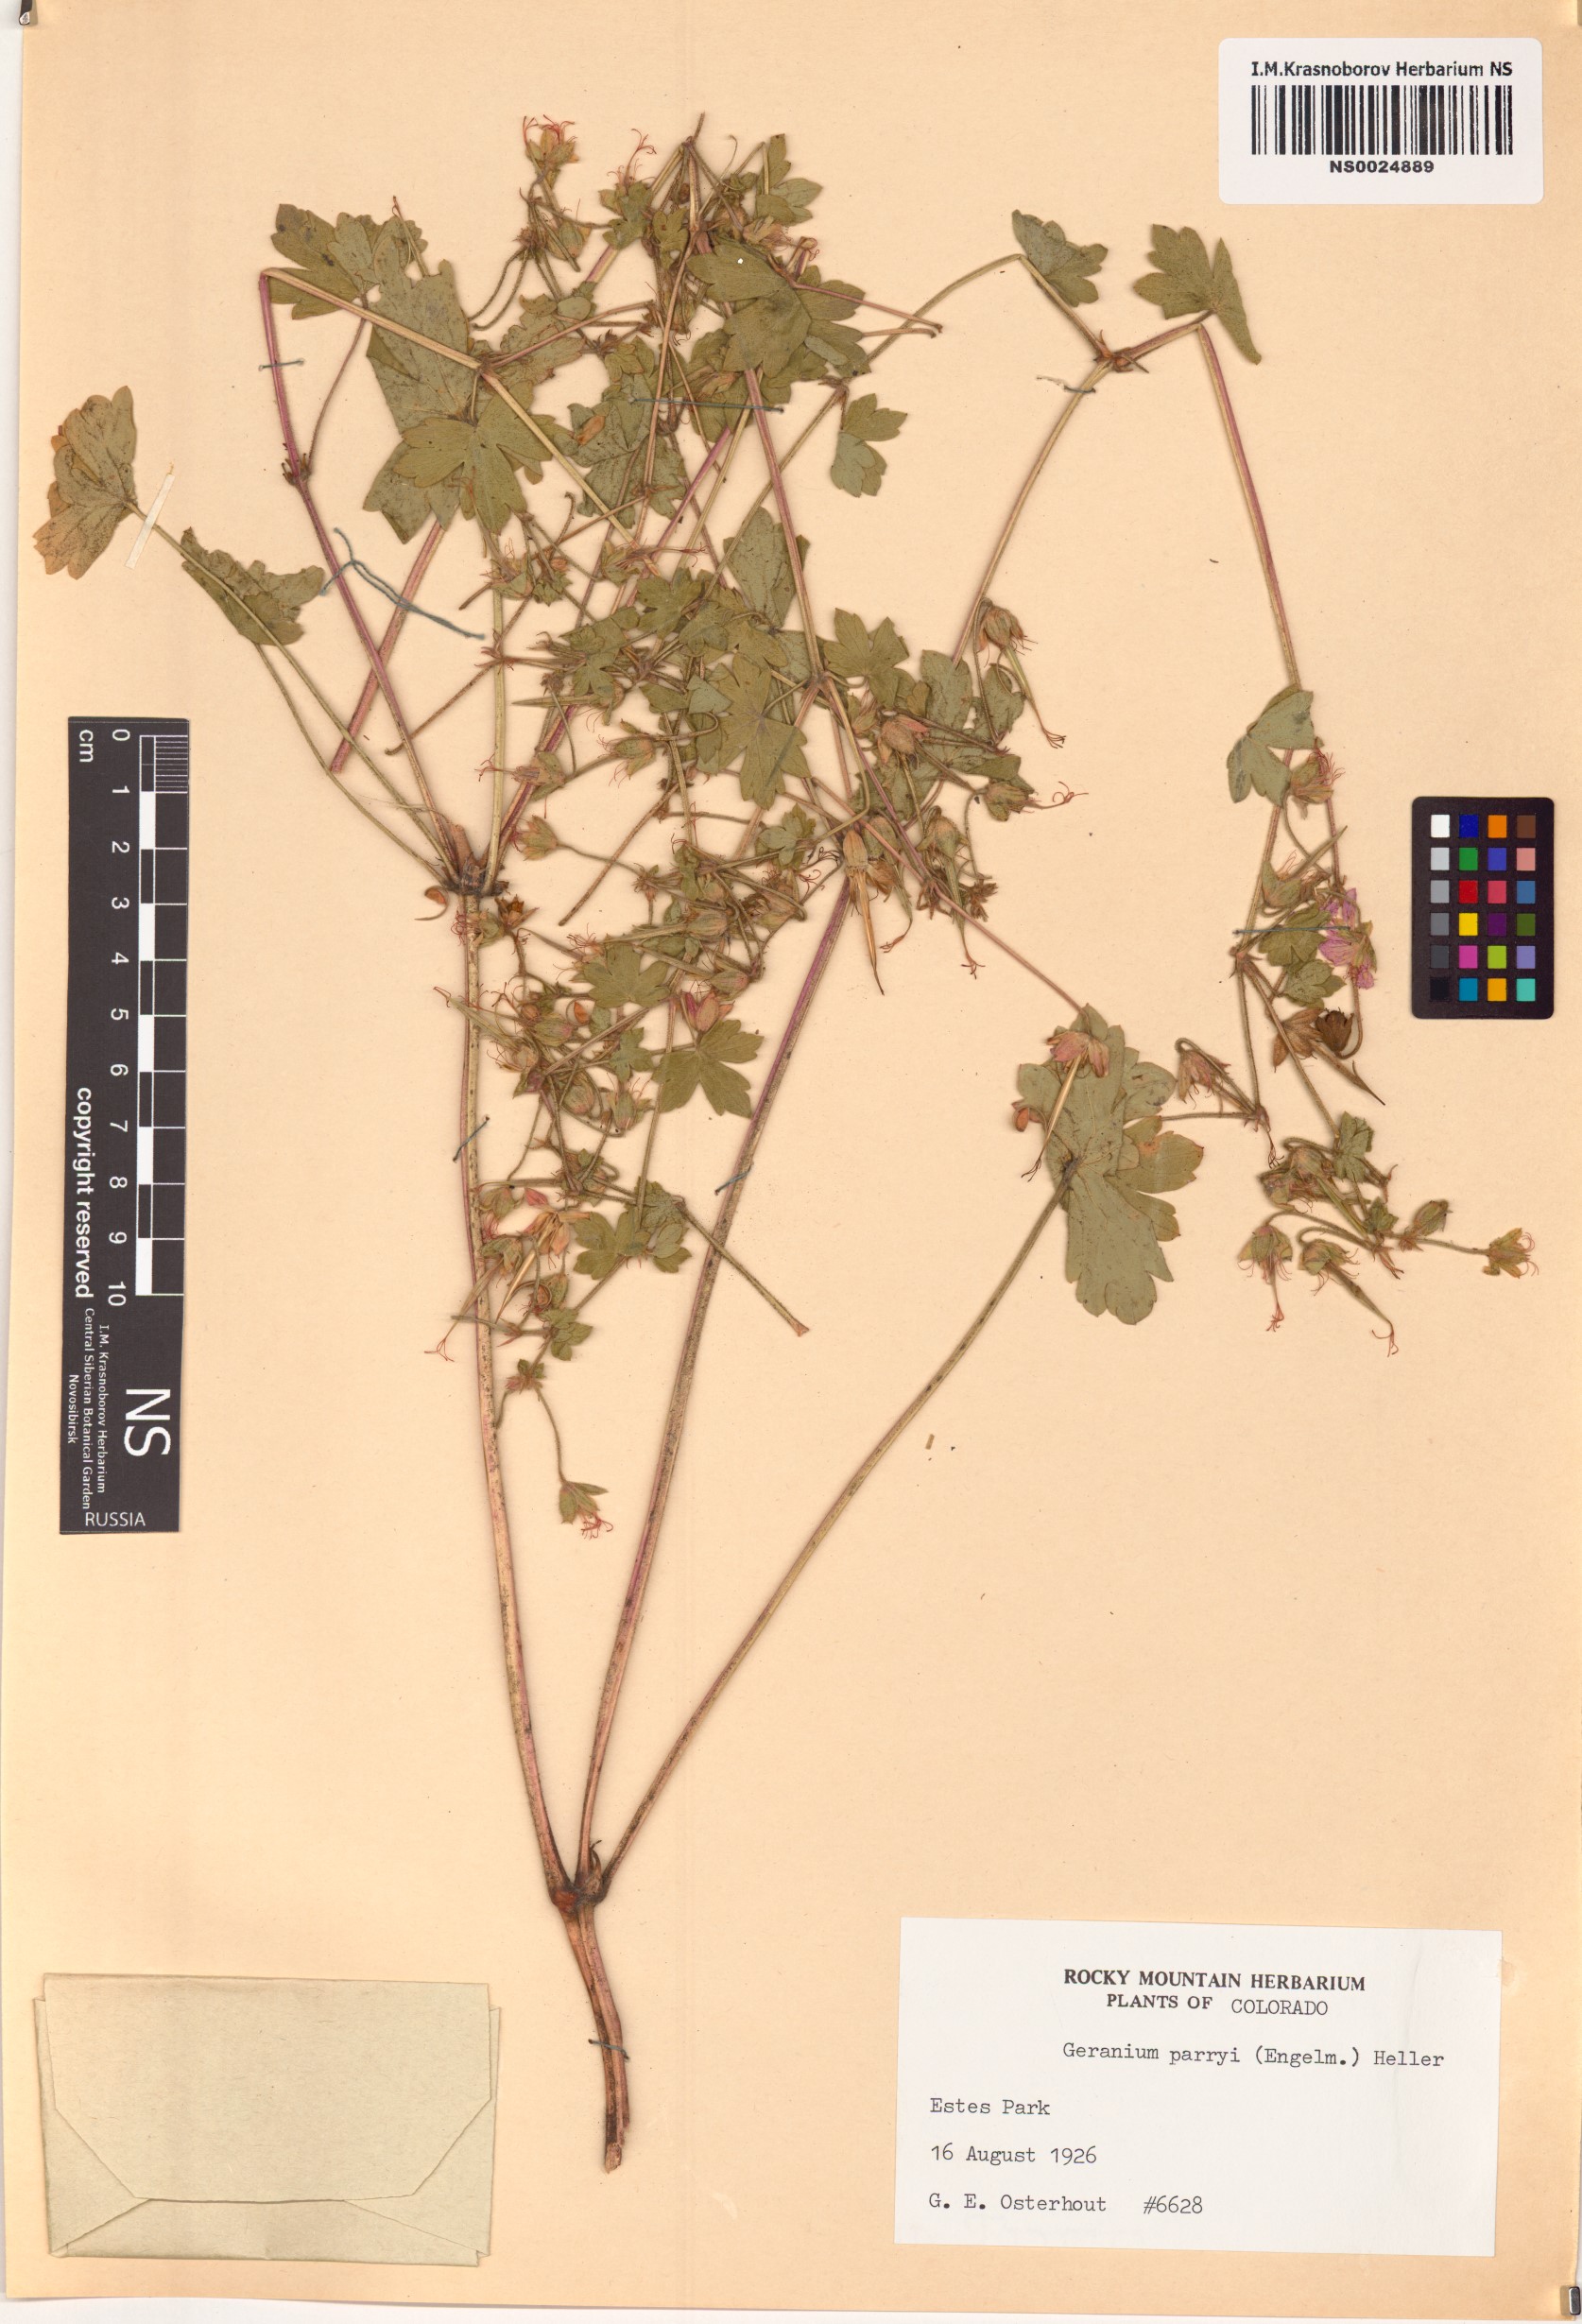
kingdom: Plantae
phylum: Tracheophyta
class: Magnoliopsida
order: Geraniales
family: Geraniaceae
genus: Geranium
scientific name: Geranium caespitosum
